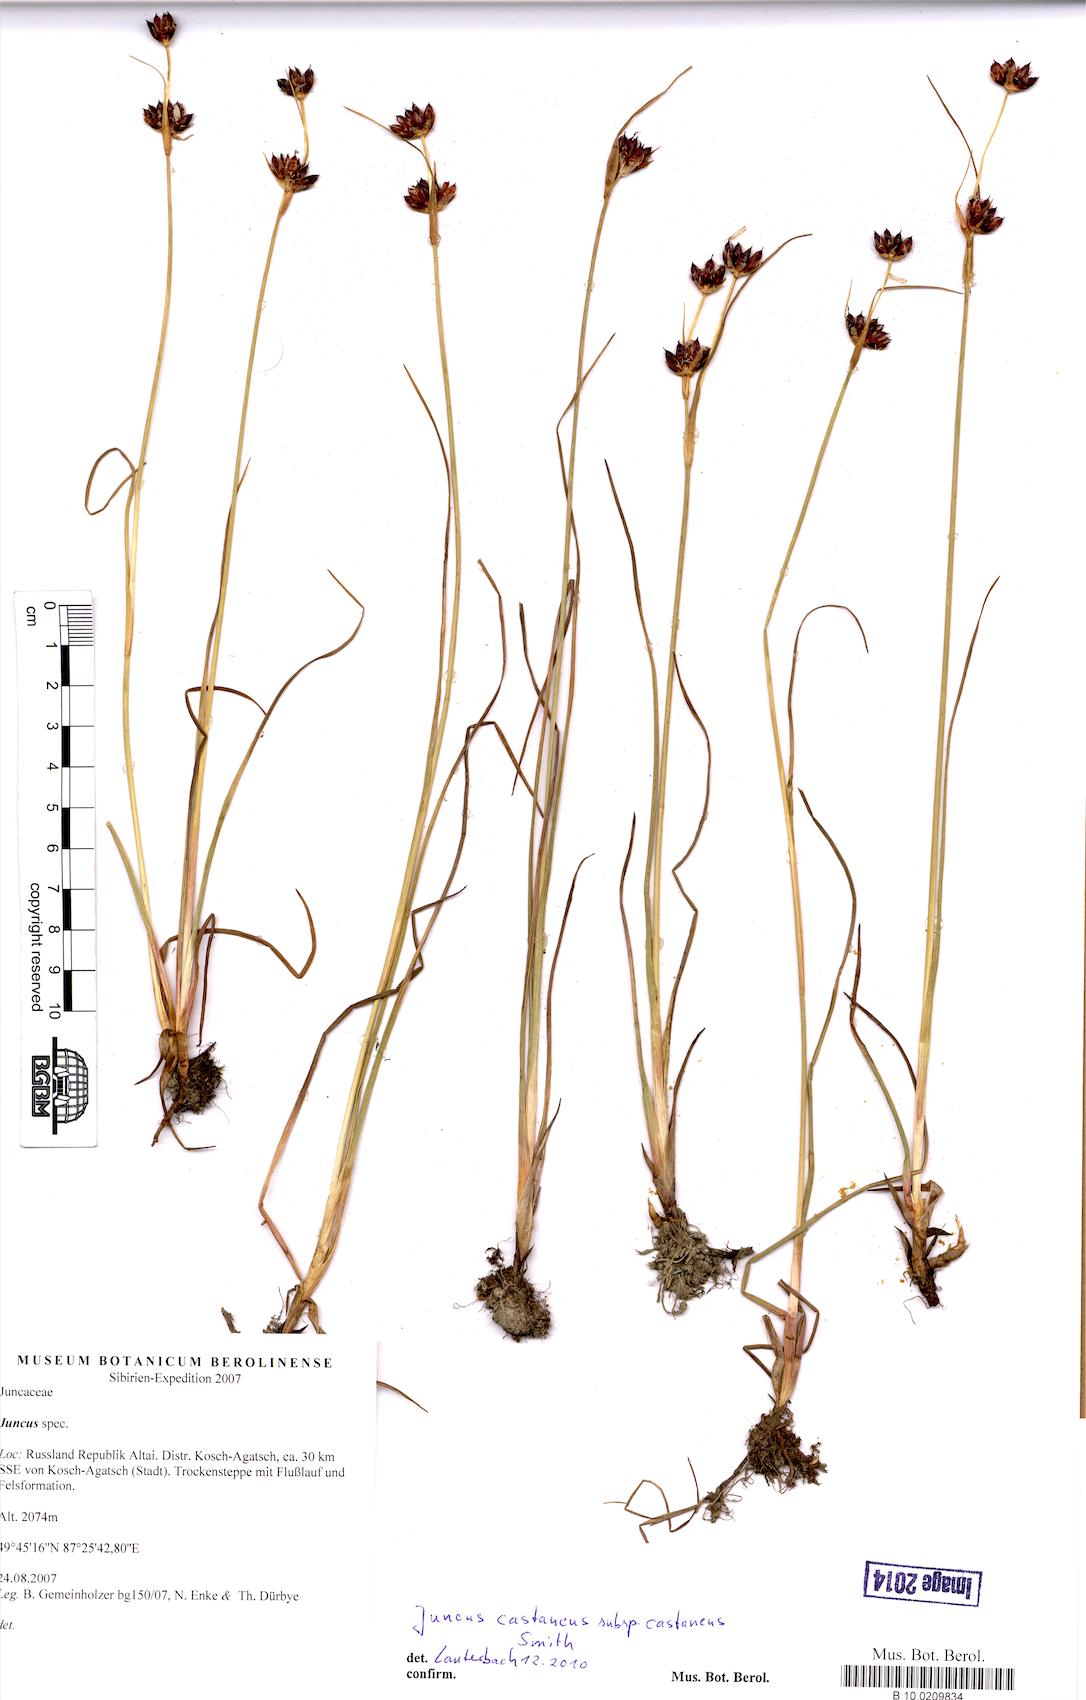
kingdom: Plantae
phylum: Tracheophyta
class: Liliopsida
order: Poales
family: Juncaceae
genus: Juncus
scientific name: Juncus castaneus
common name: Chestnut rush
